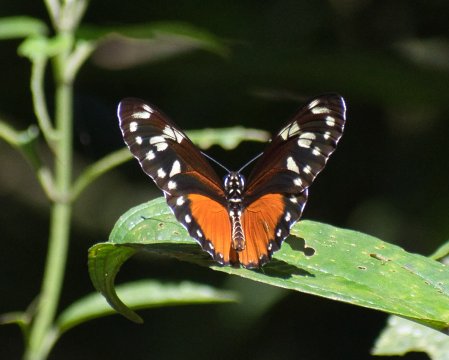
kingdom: Animalia
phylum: Arthropoda
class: Insecta
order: Lepidoptera
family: Nymphalidae
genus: Heliconius
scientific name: Heliconius hecalesia
